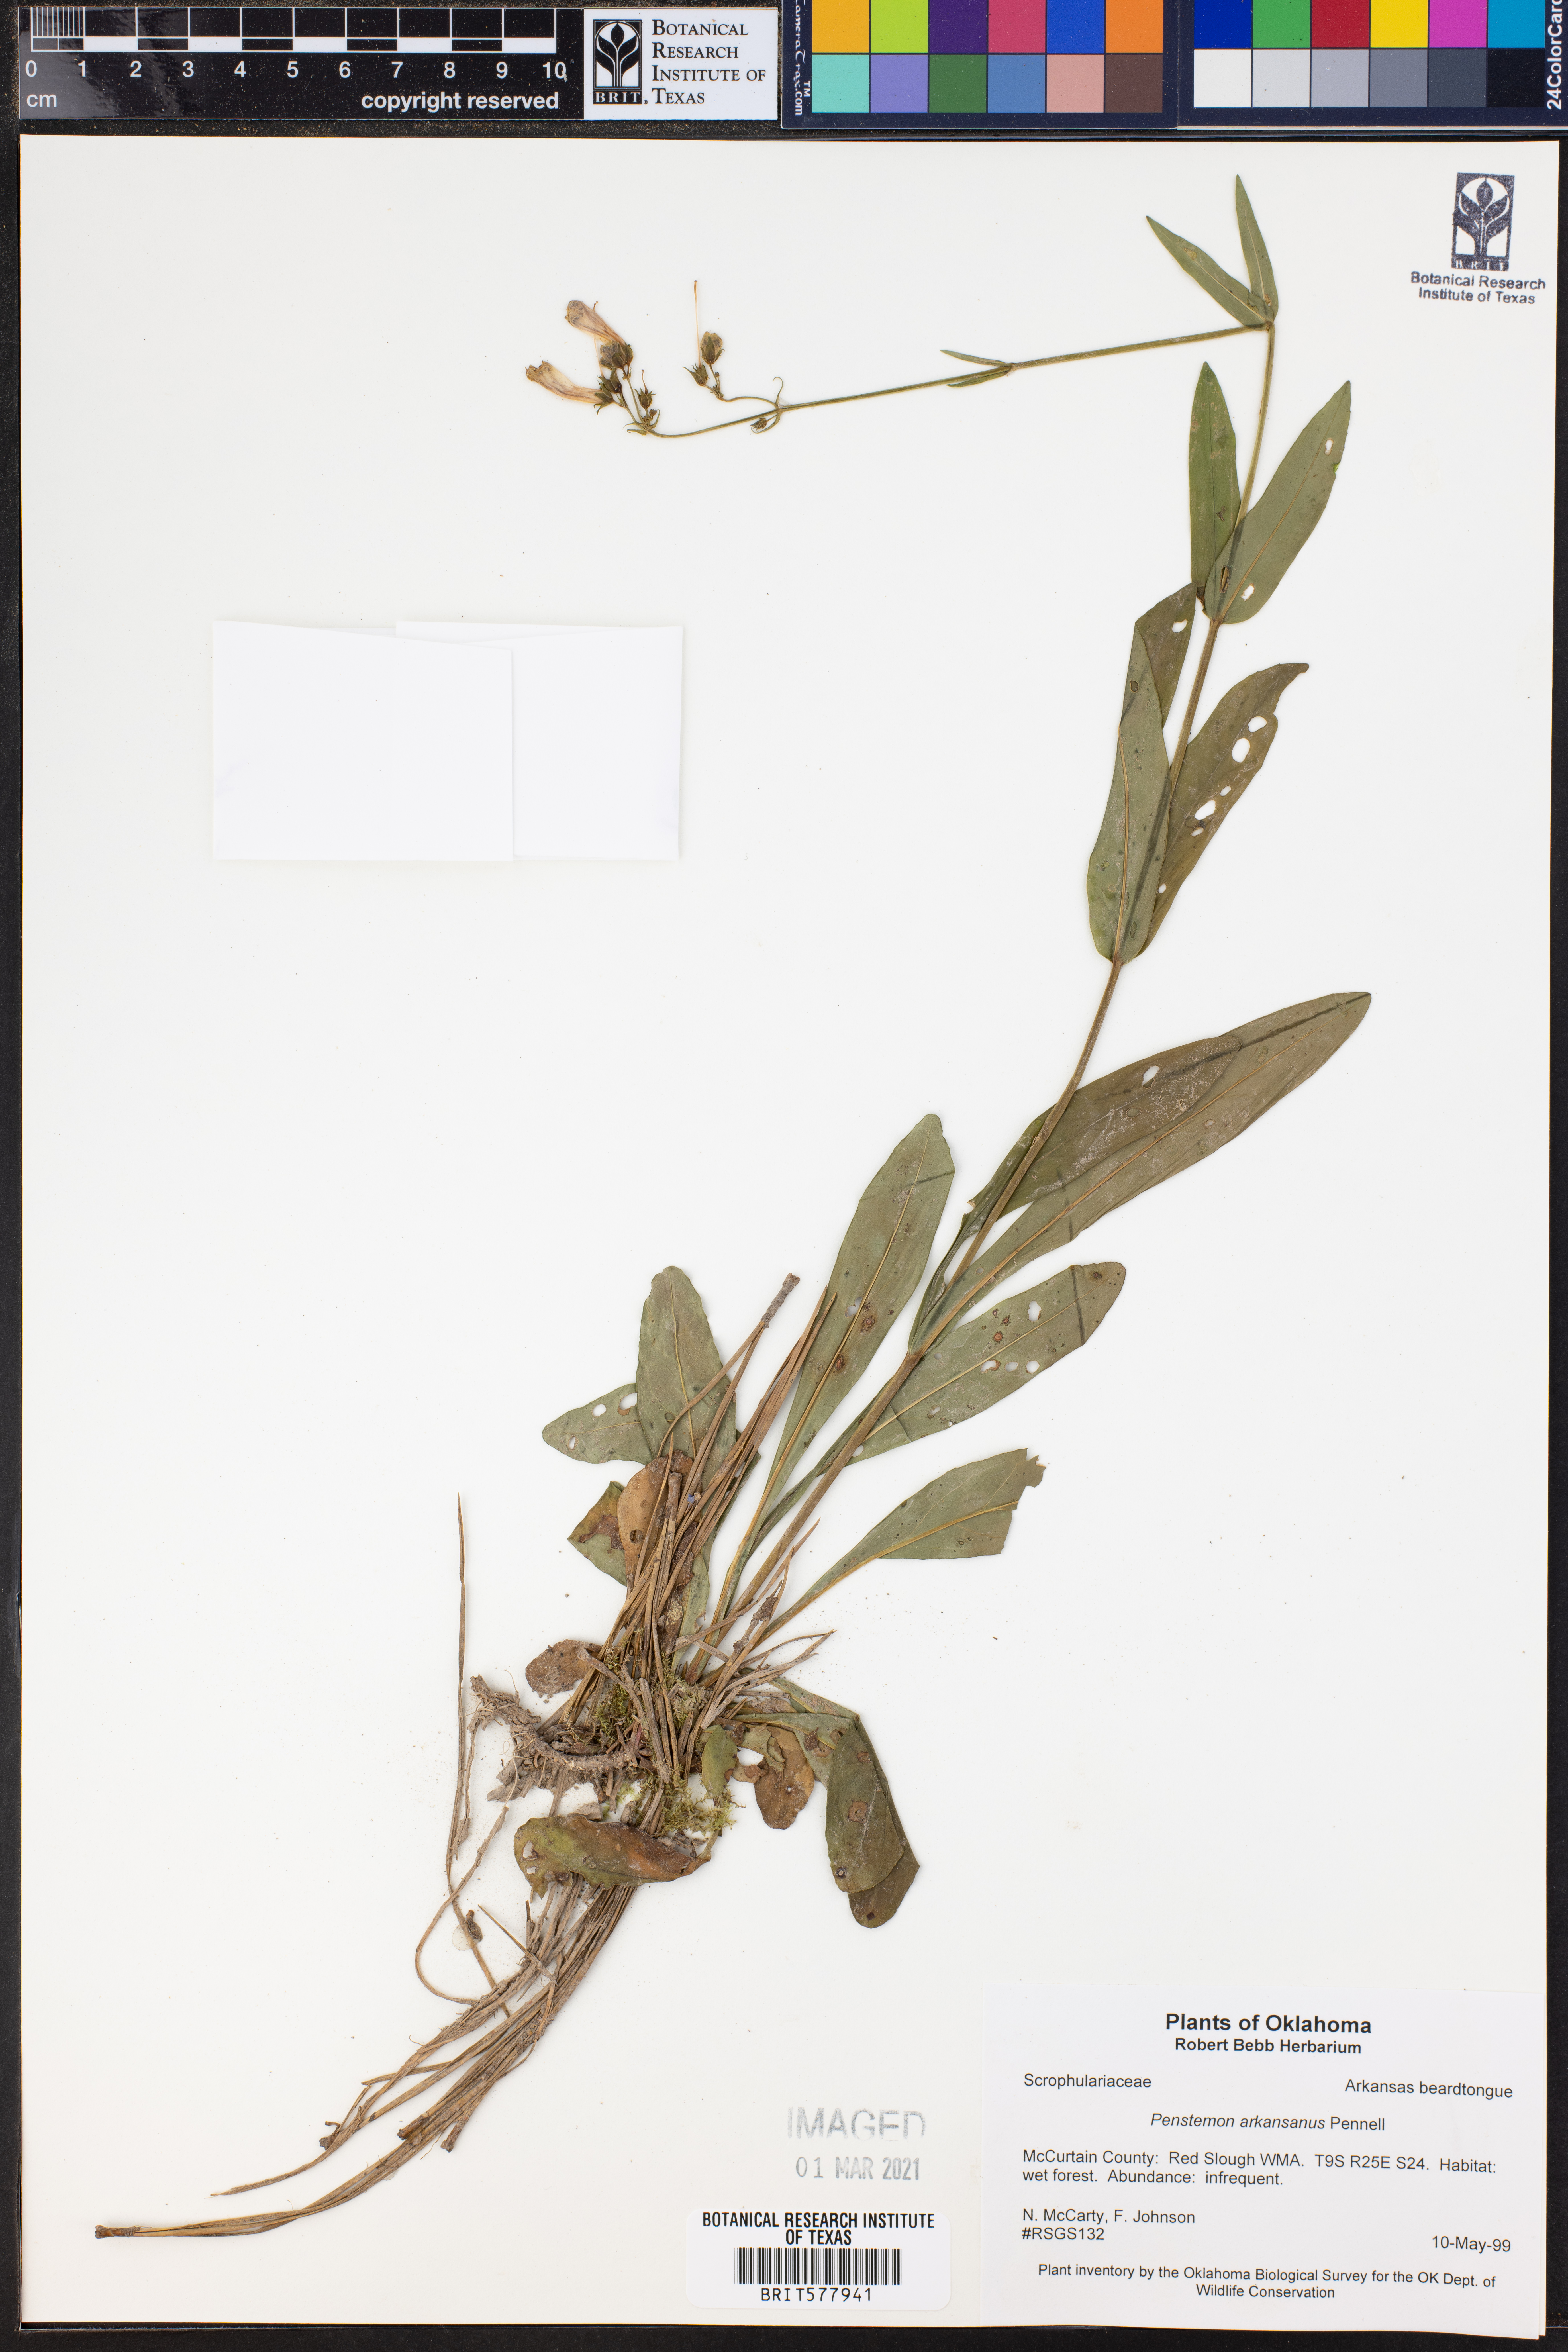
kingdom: Plantae
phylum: Tracheophyta
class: Magnoliopsida
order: Lamiales
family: Plantaginaceae
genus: Penstemon
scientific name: Penstemon arkansanus
